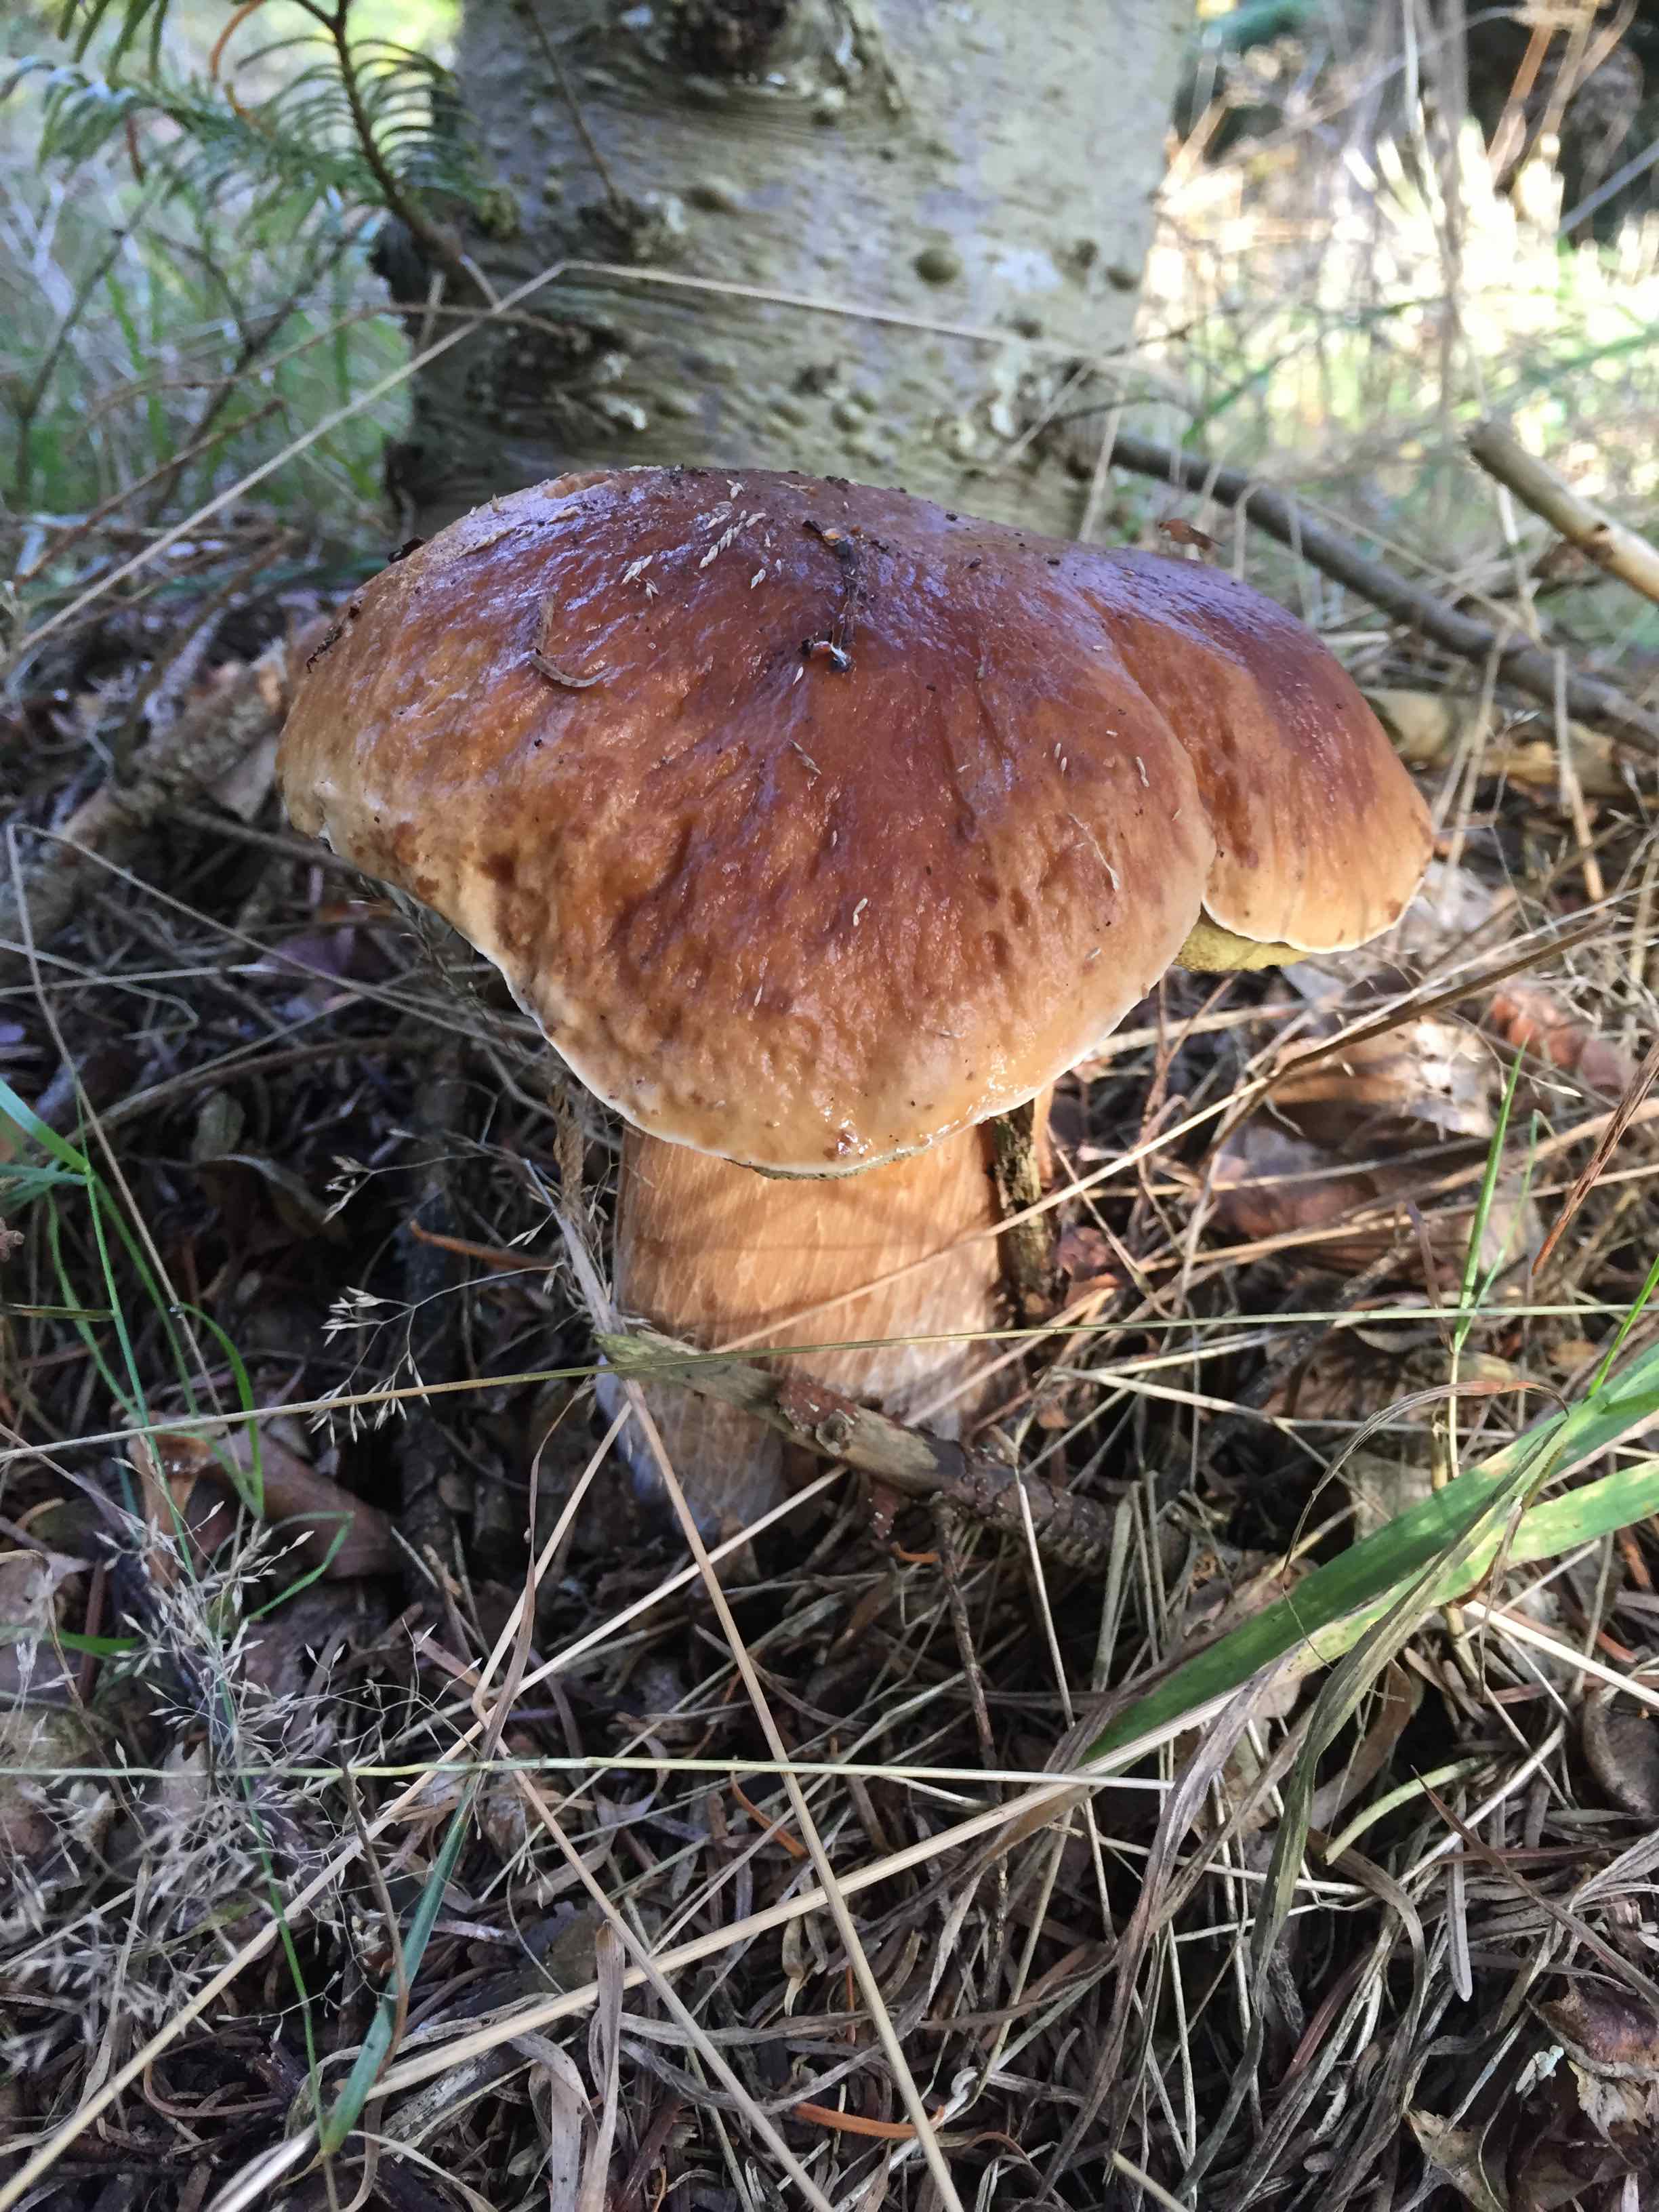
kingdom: Fungi
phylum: Basidiomycota
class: Agaricomycetes
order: Boletales
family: Boletaceae
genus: Boletus
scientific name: Boletus edulis
